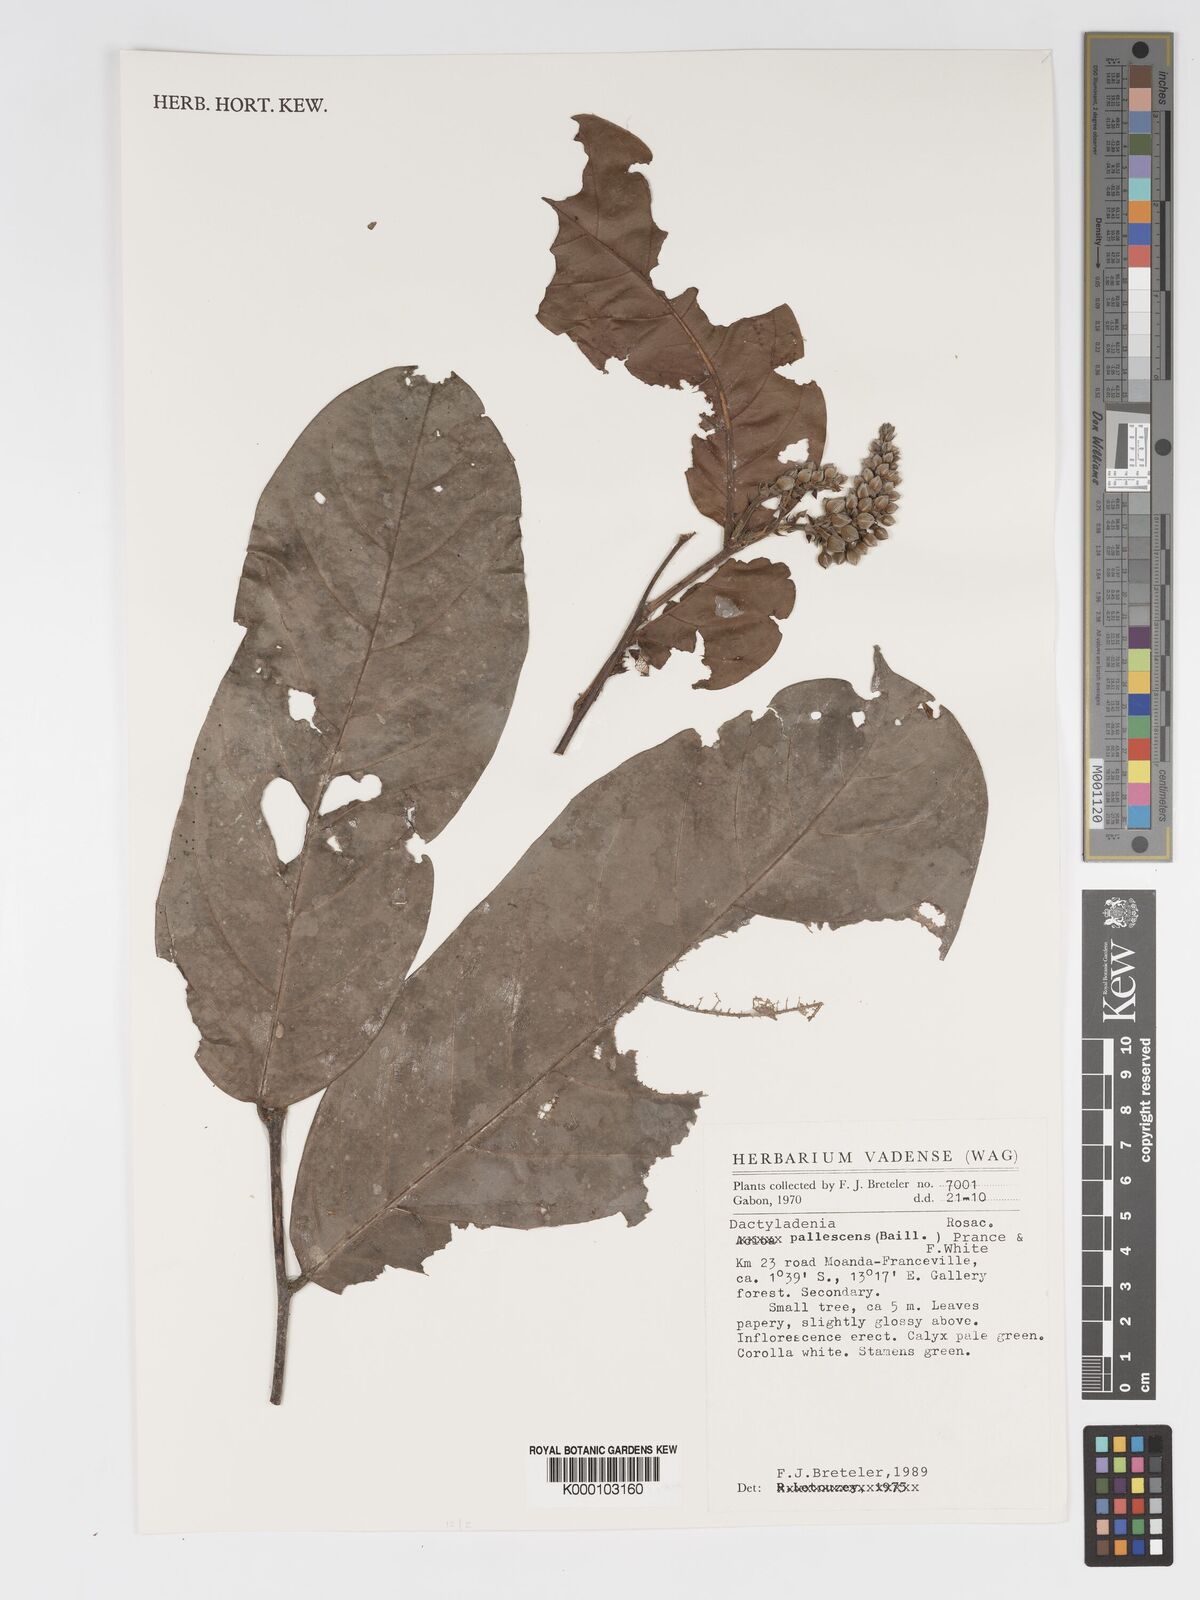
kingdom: Plantae
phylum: Tracheophyta
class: Magnoliopsida
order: Malpighiales
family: Chrysobalanaceae
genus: Dactyladenia
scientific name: Dactyladenia pallescens
